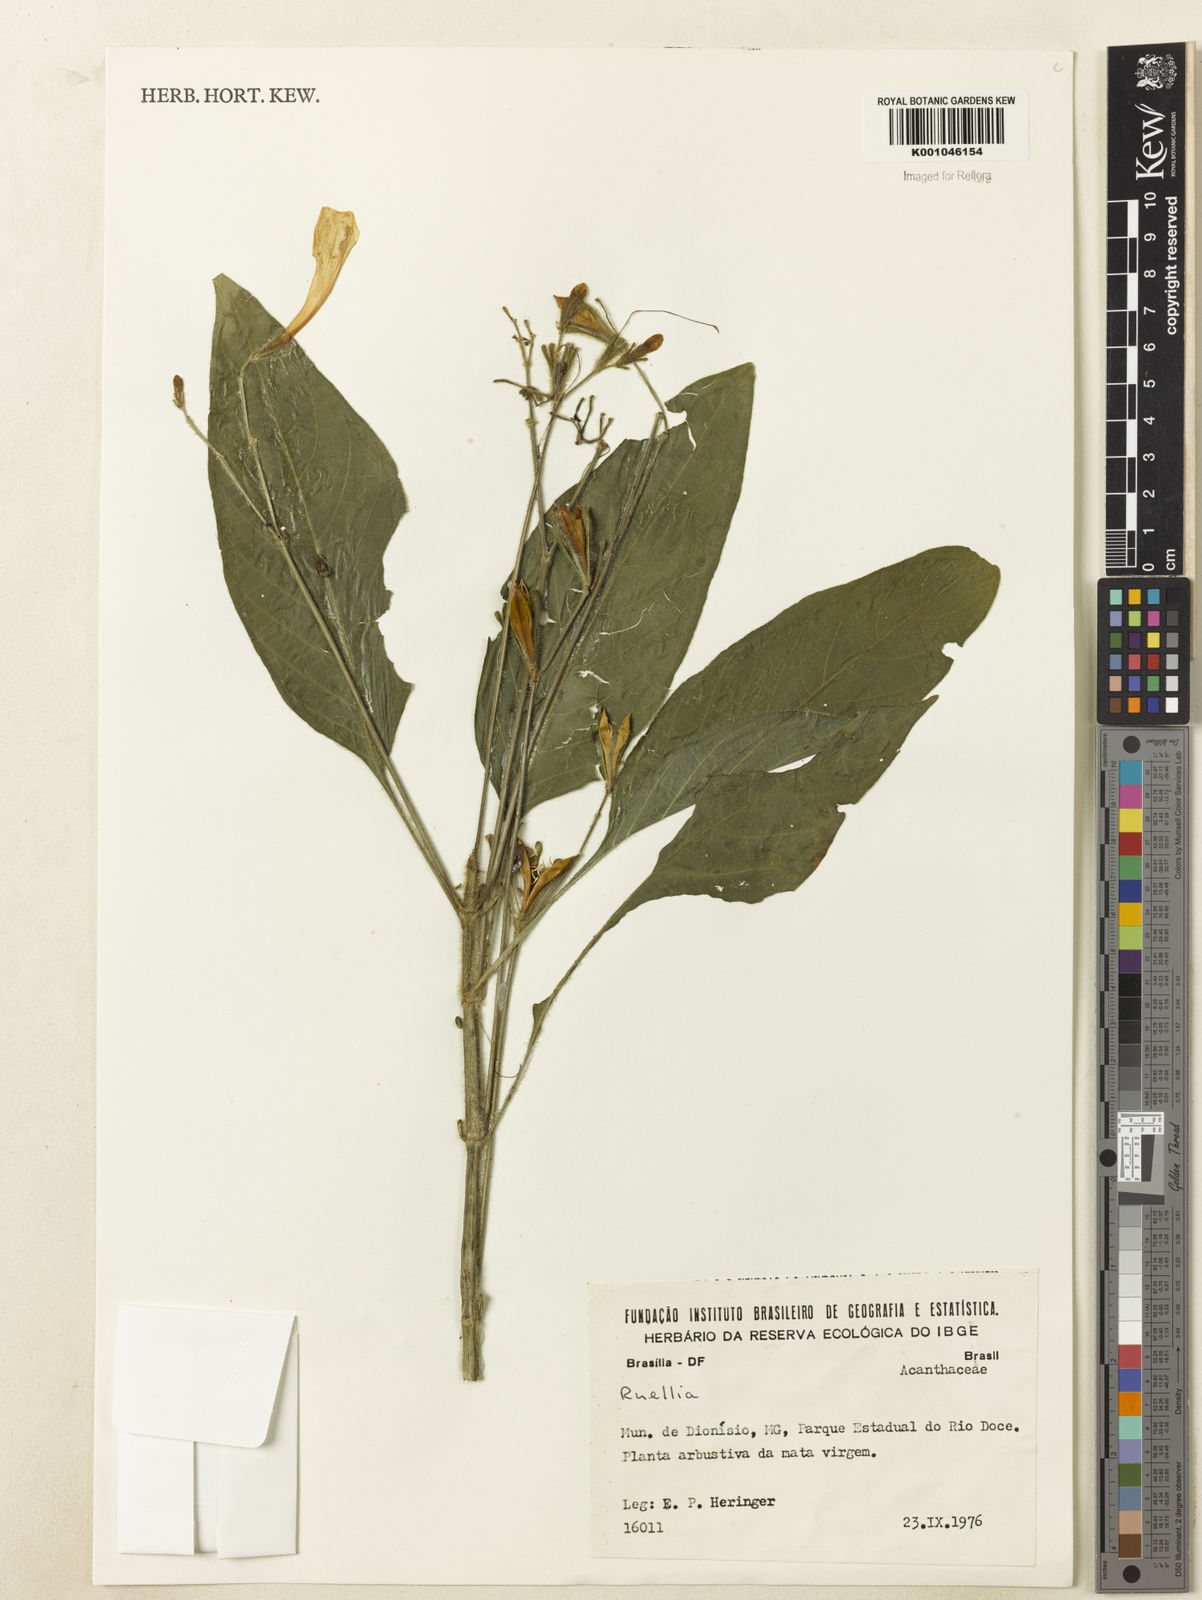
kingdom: Plantae
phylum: Tracheophyta
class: Magnoliopsida
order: Lamiales
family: Acanthaceae
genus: Ruellia
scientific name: Ruellia
